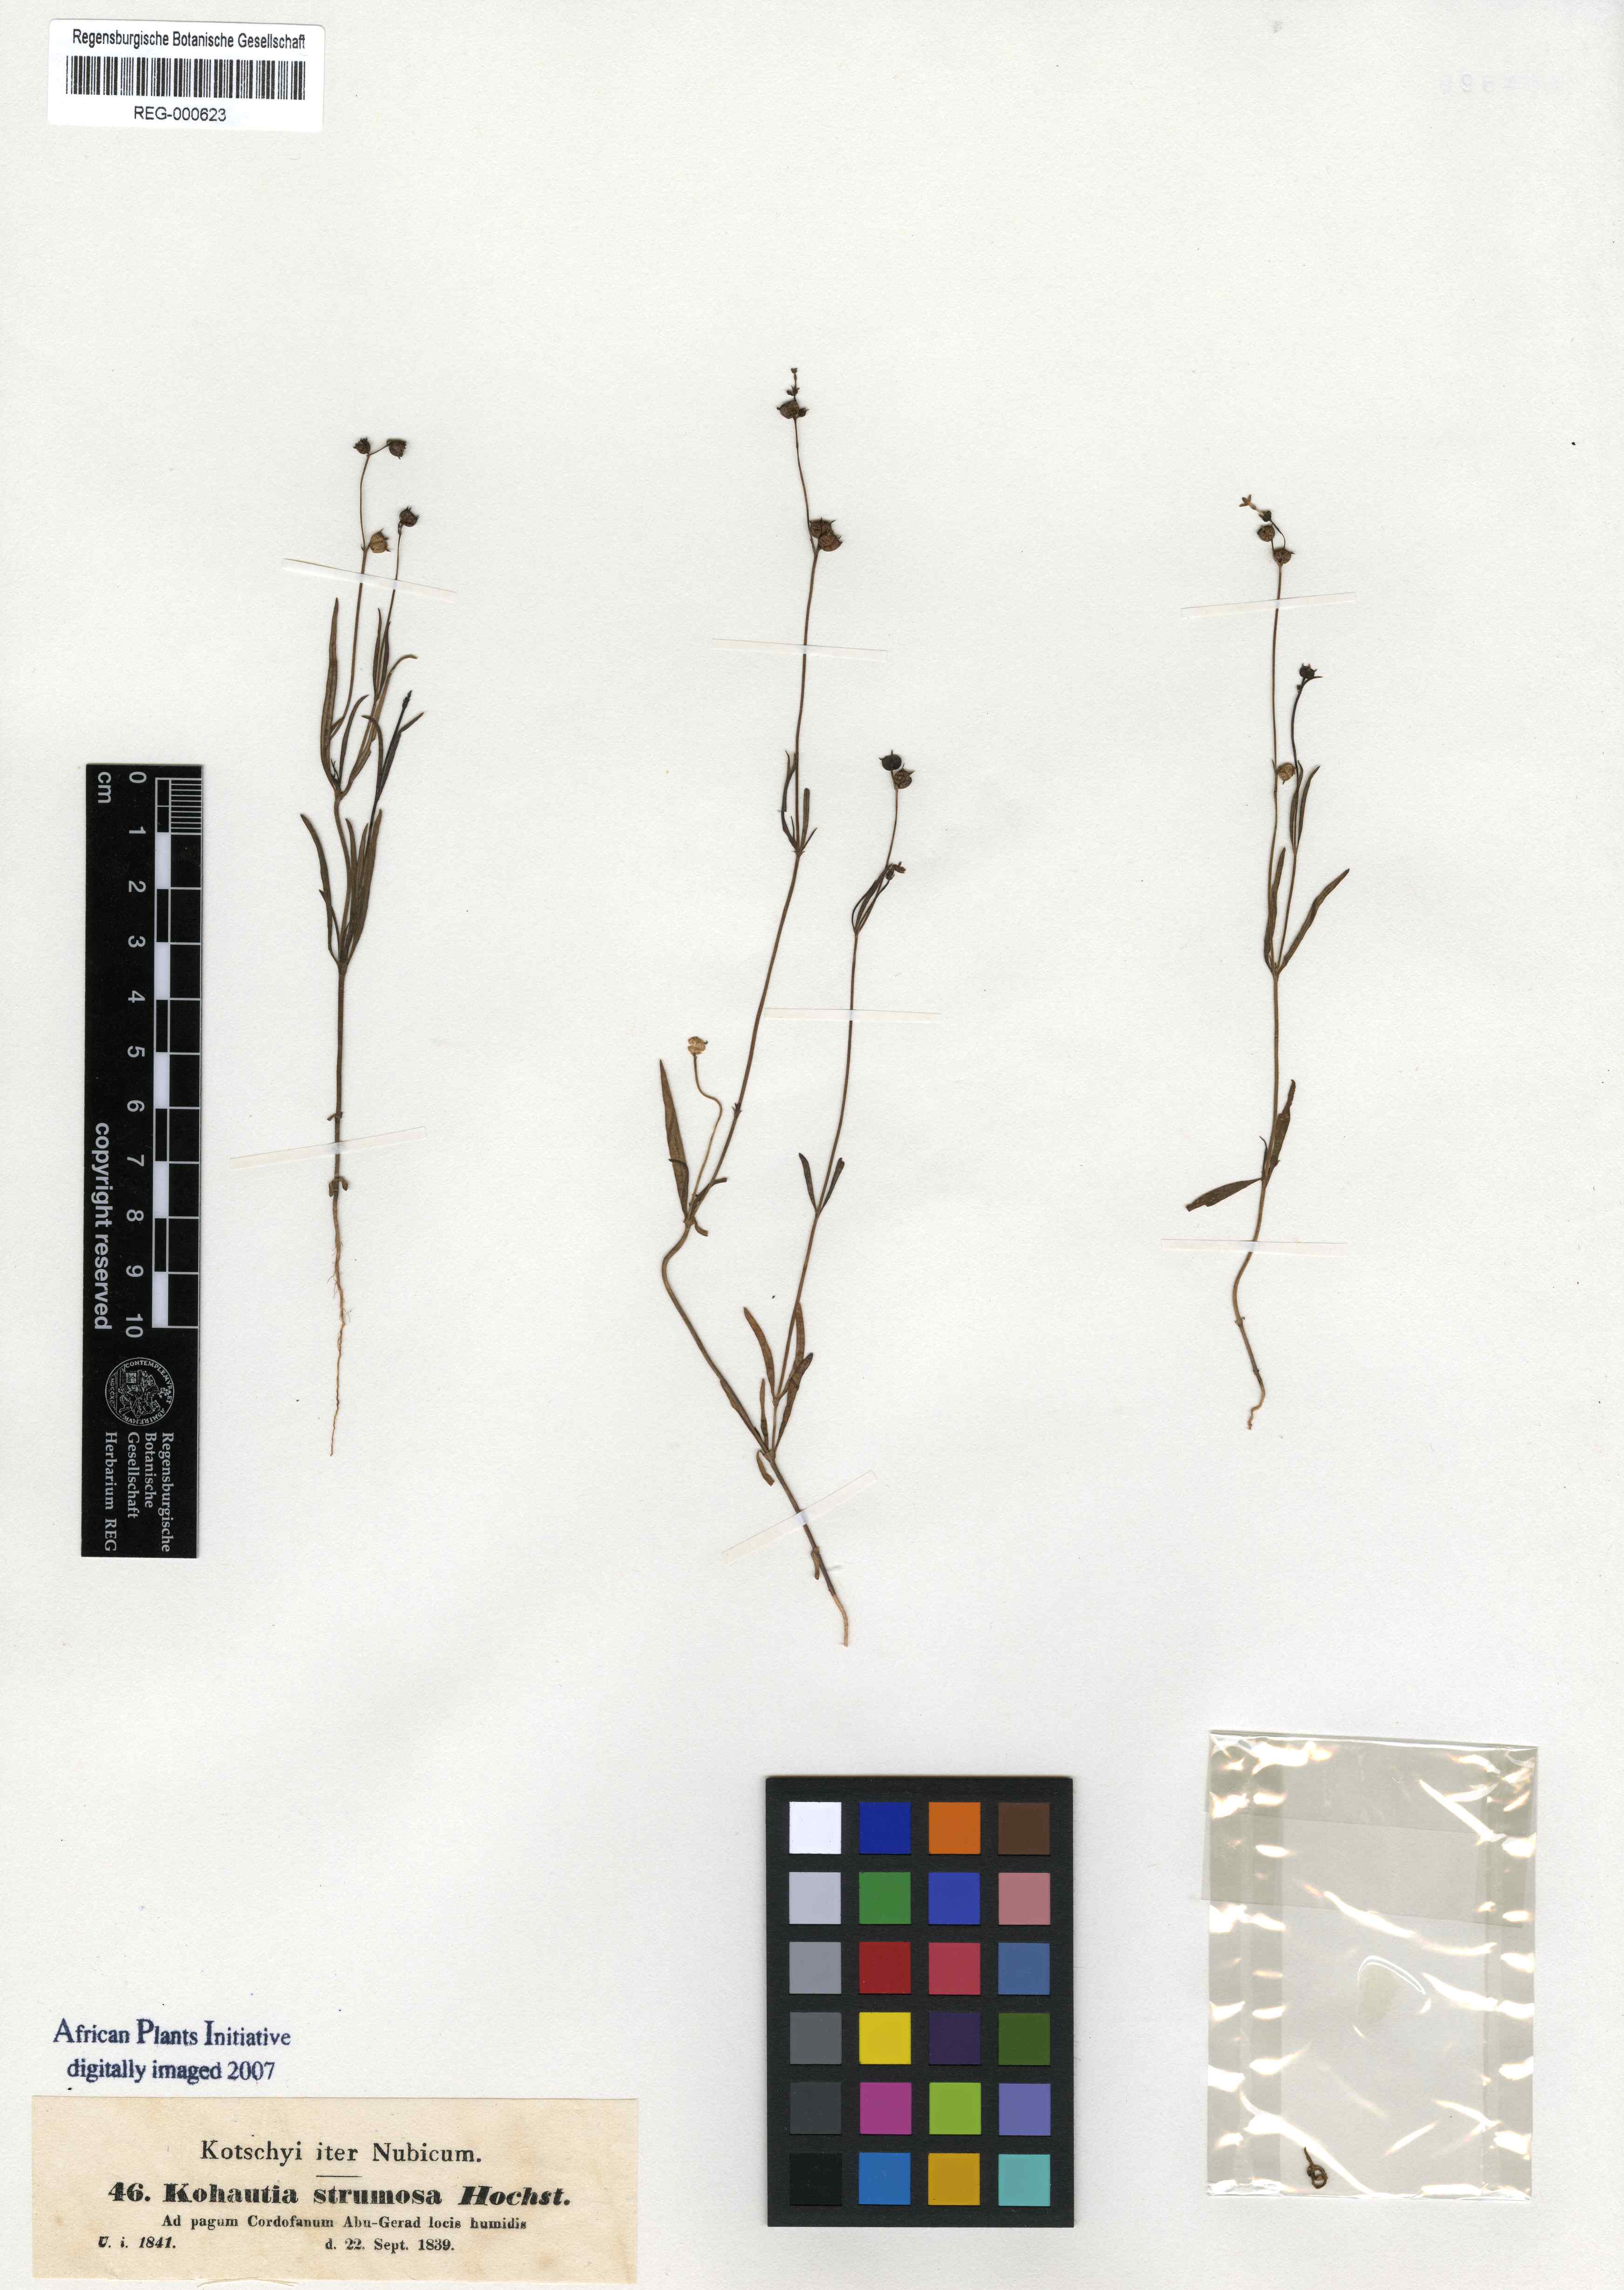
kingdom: Plantae
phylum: Tracheophyta
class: Magnoliopsida
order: Gentianales
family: Rubiaceae
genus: Kohautia
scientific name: Kohautia aspera
